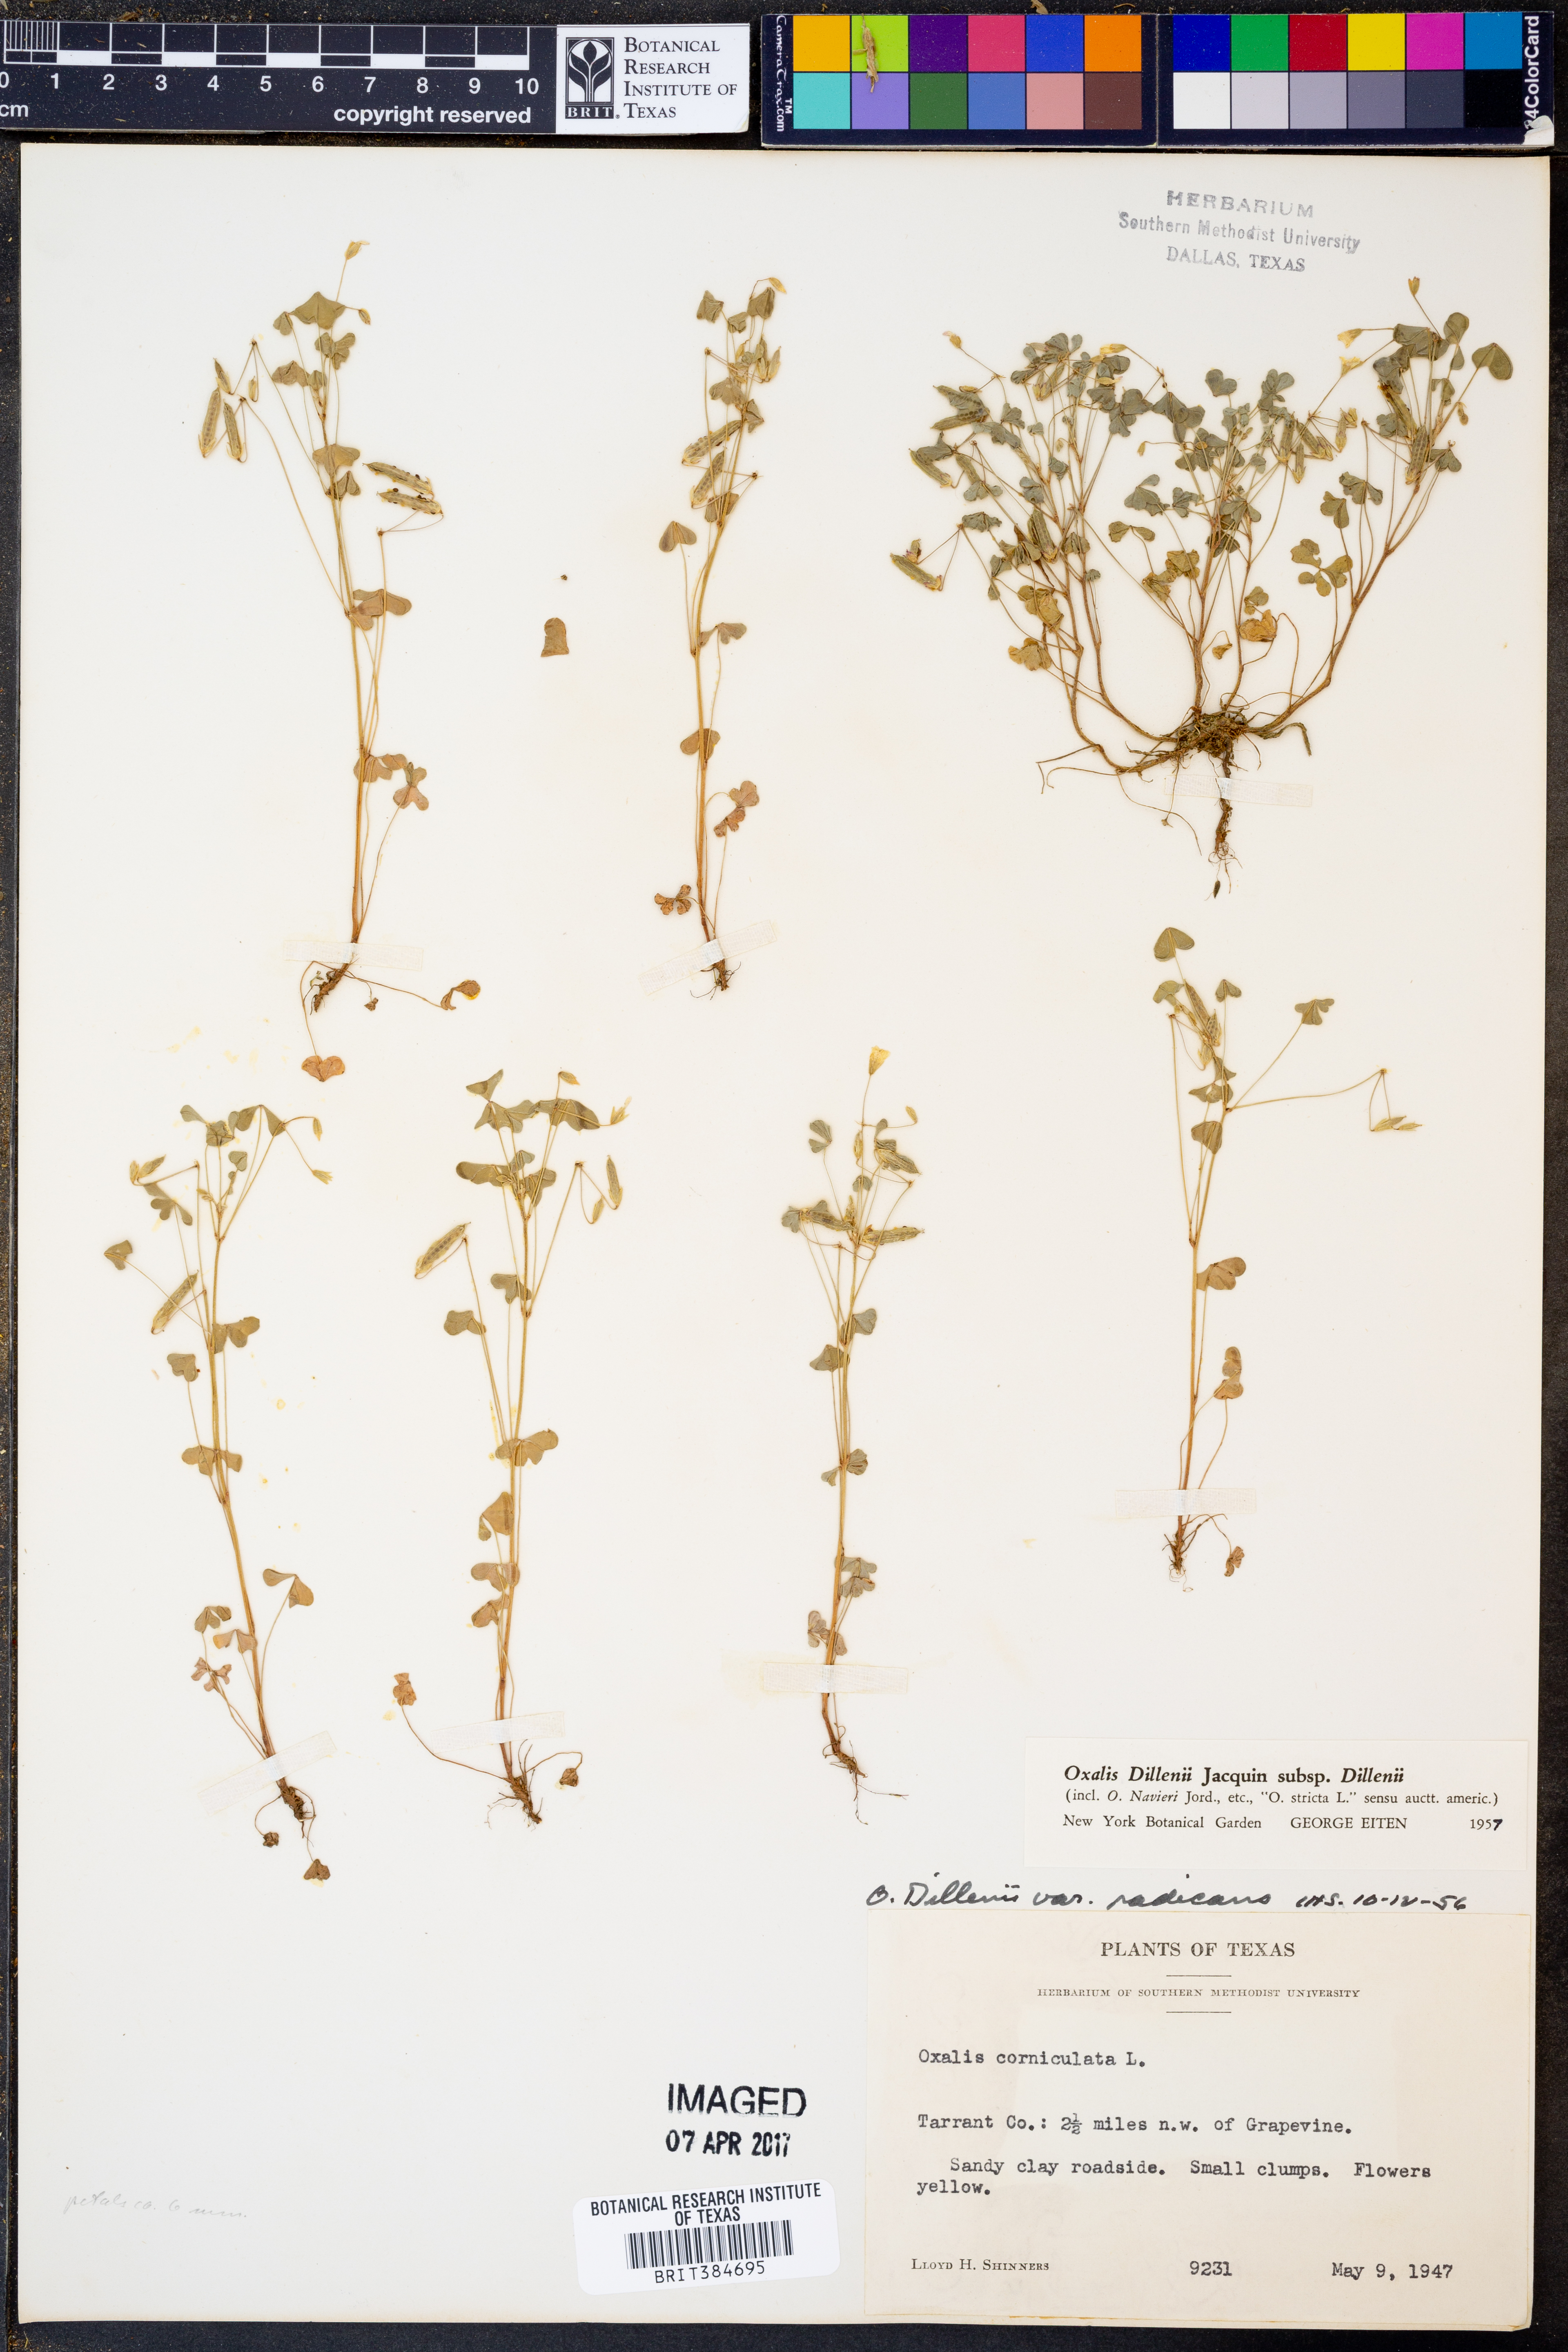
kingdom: Plantae
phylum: Tracheophyta
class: Magnoliopsida
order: Oxalidales
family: Oxalidaceae
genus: Oxalis
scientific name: Oxalis dillenii
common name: Sussex yellow-sorrel
